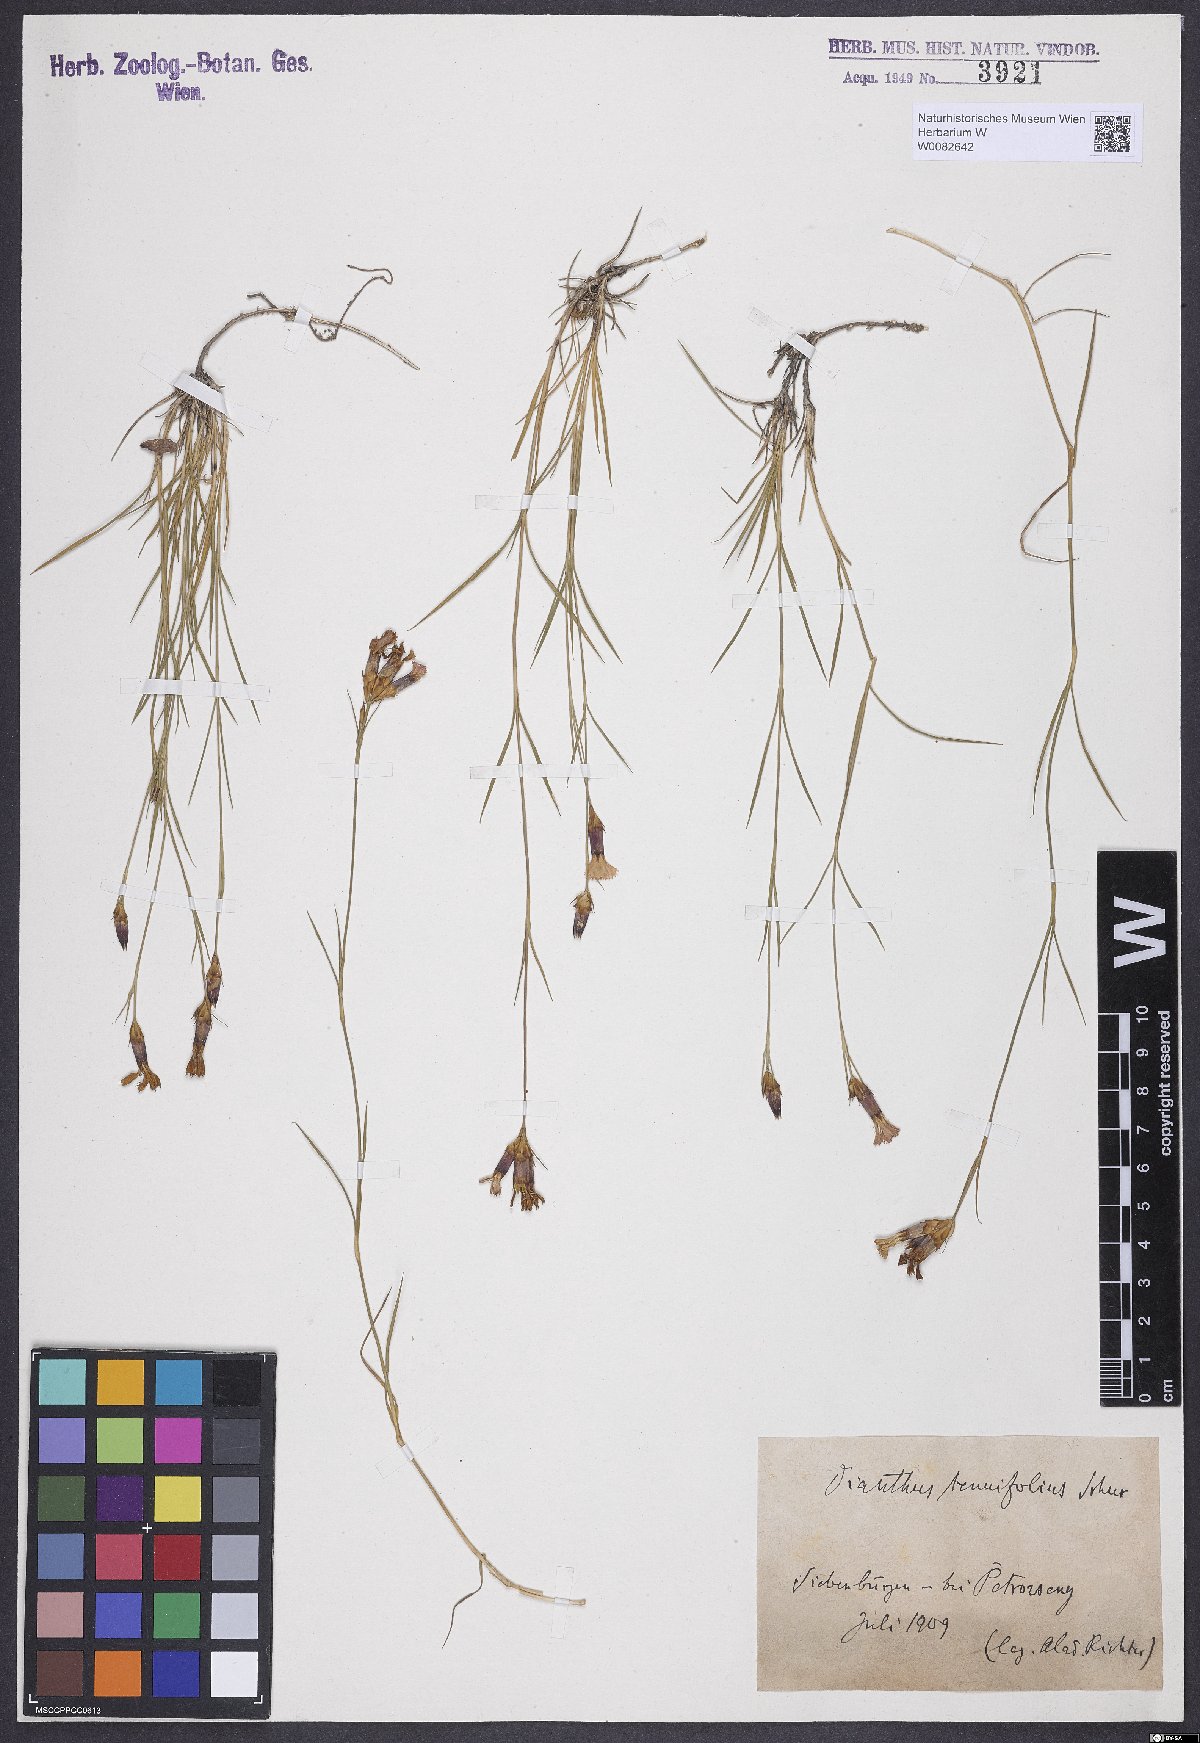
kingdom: Plantae
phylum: Tracheophyta
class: Magnoliopsida
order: Caryophyllales
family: Caryophyllaceae
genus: Dianthus
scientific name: Dianthus carthusianorum
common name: Carthusian pink
